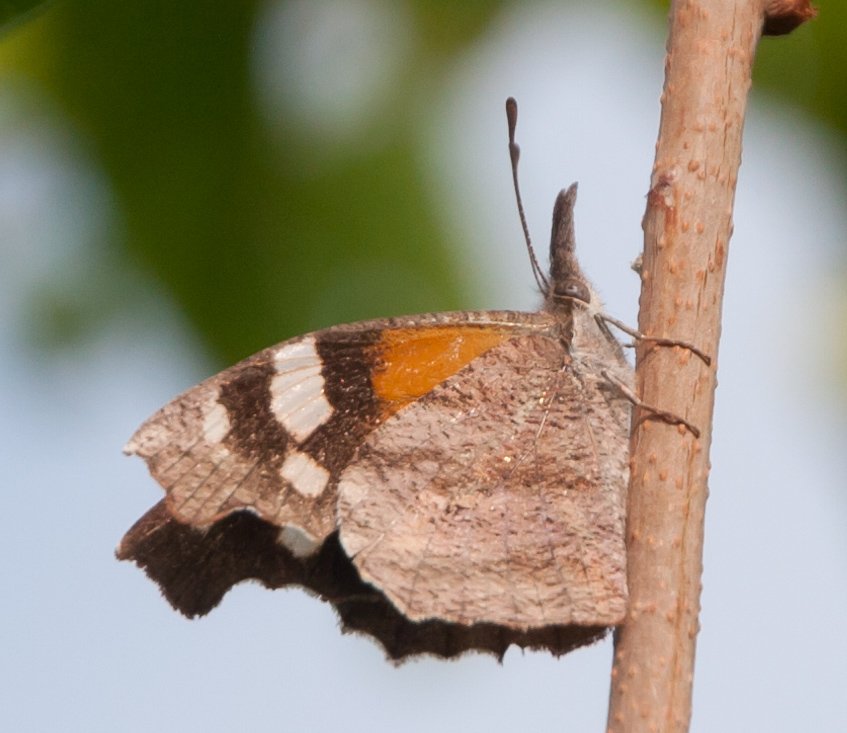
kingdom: Animalia
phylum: Arthropoda
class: Insecta
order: Lepidoptera
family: Nymphalidae
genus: Libytheana
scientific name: Libytheana carinenta
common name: American Snout
